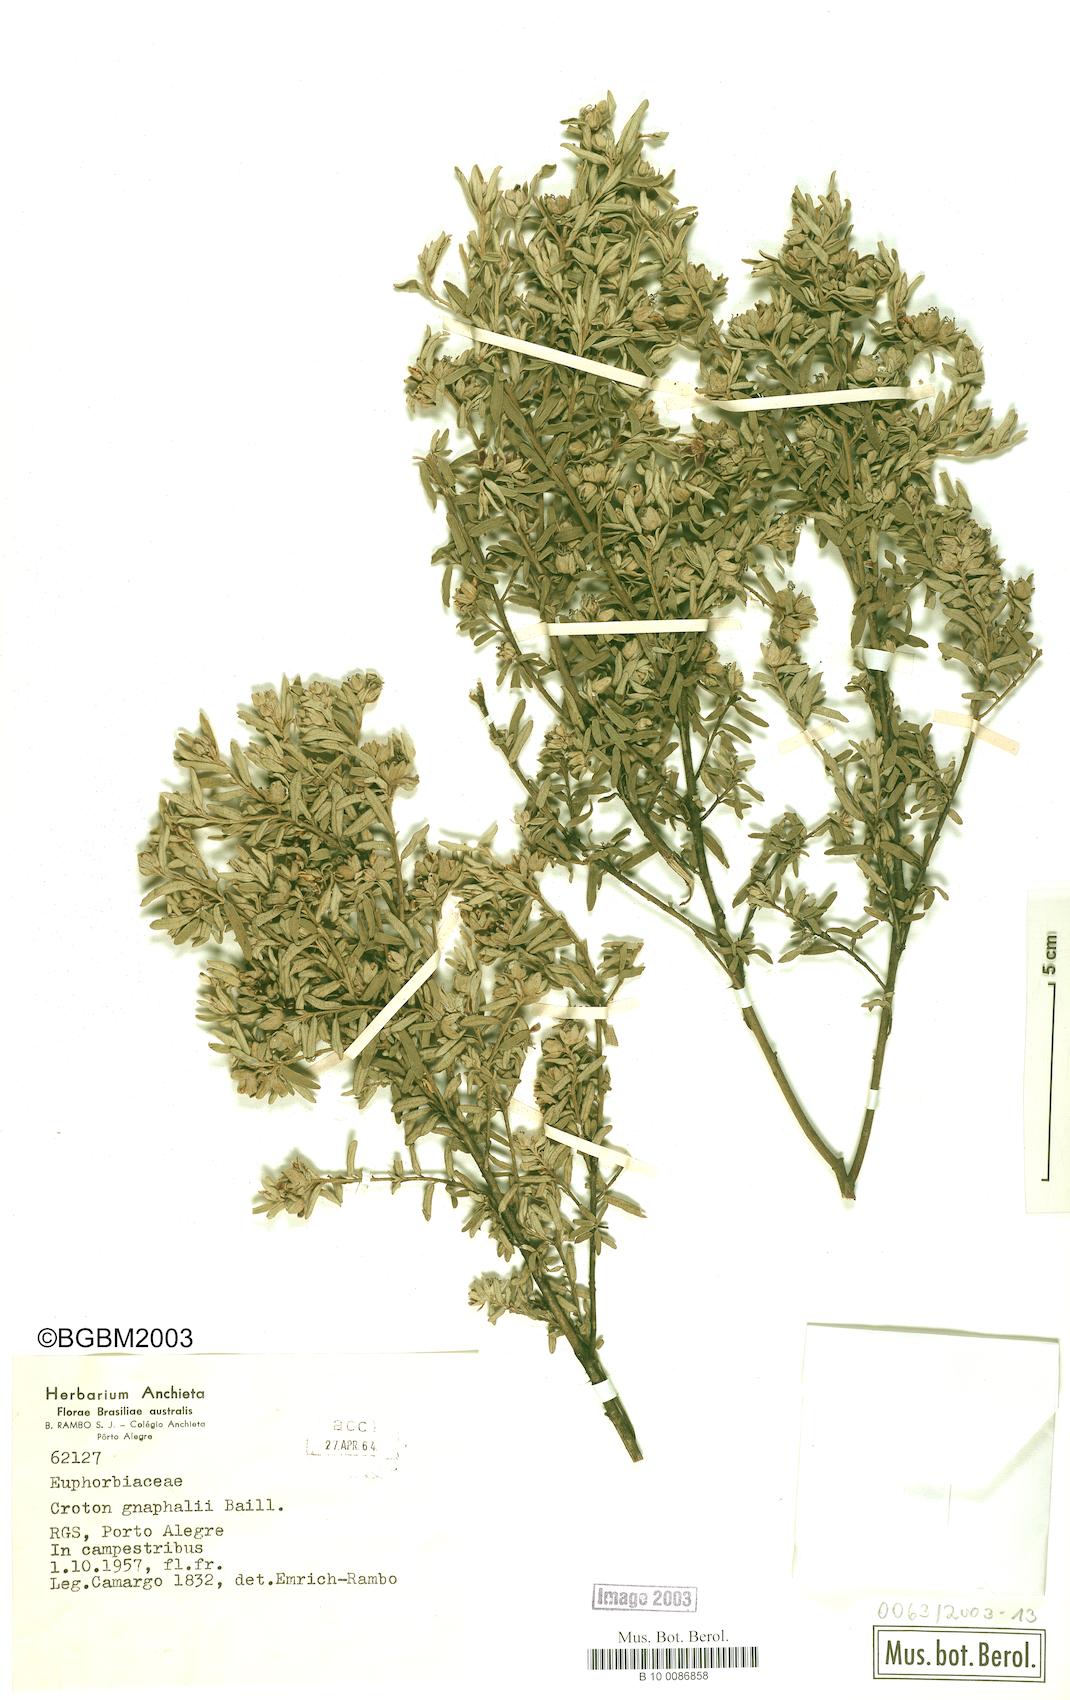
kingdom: Plantae
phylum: Tracheophyta
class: Magnoliopsida
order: Malpighiales
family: Euphorbiaceae
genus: Croton
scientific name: Croton gnaphalii
